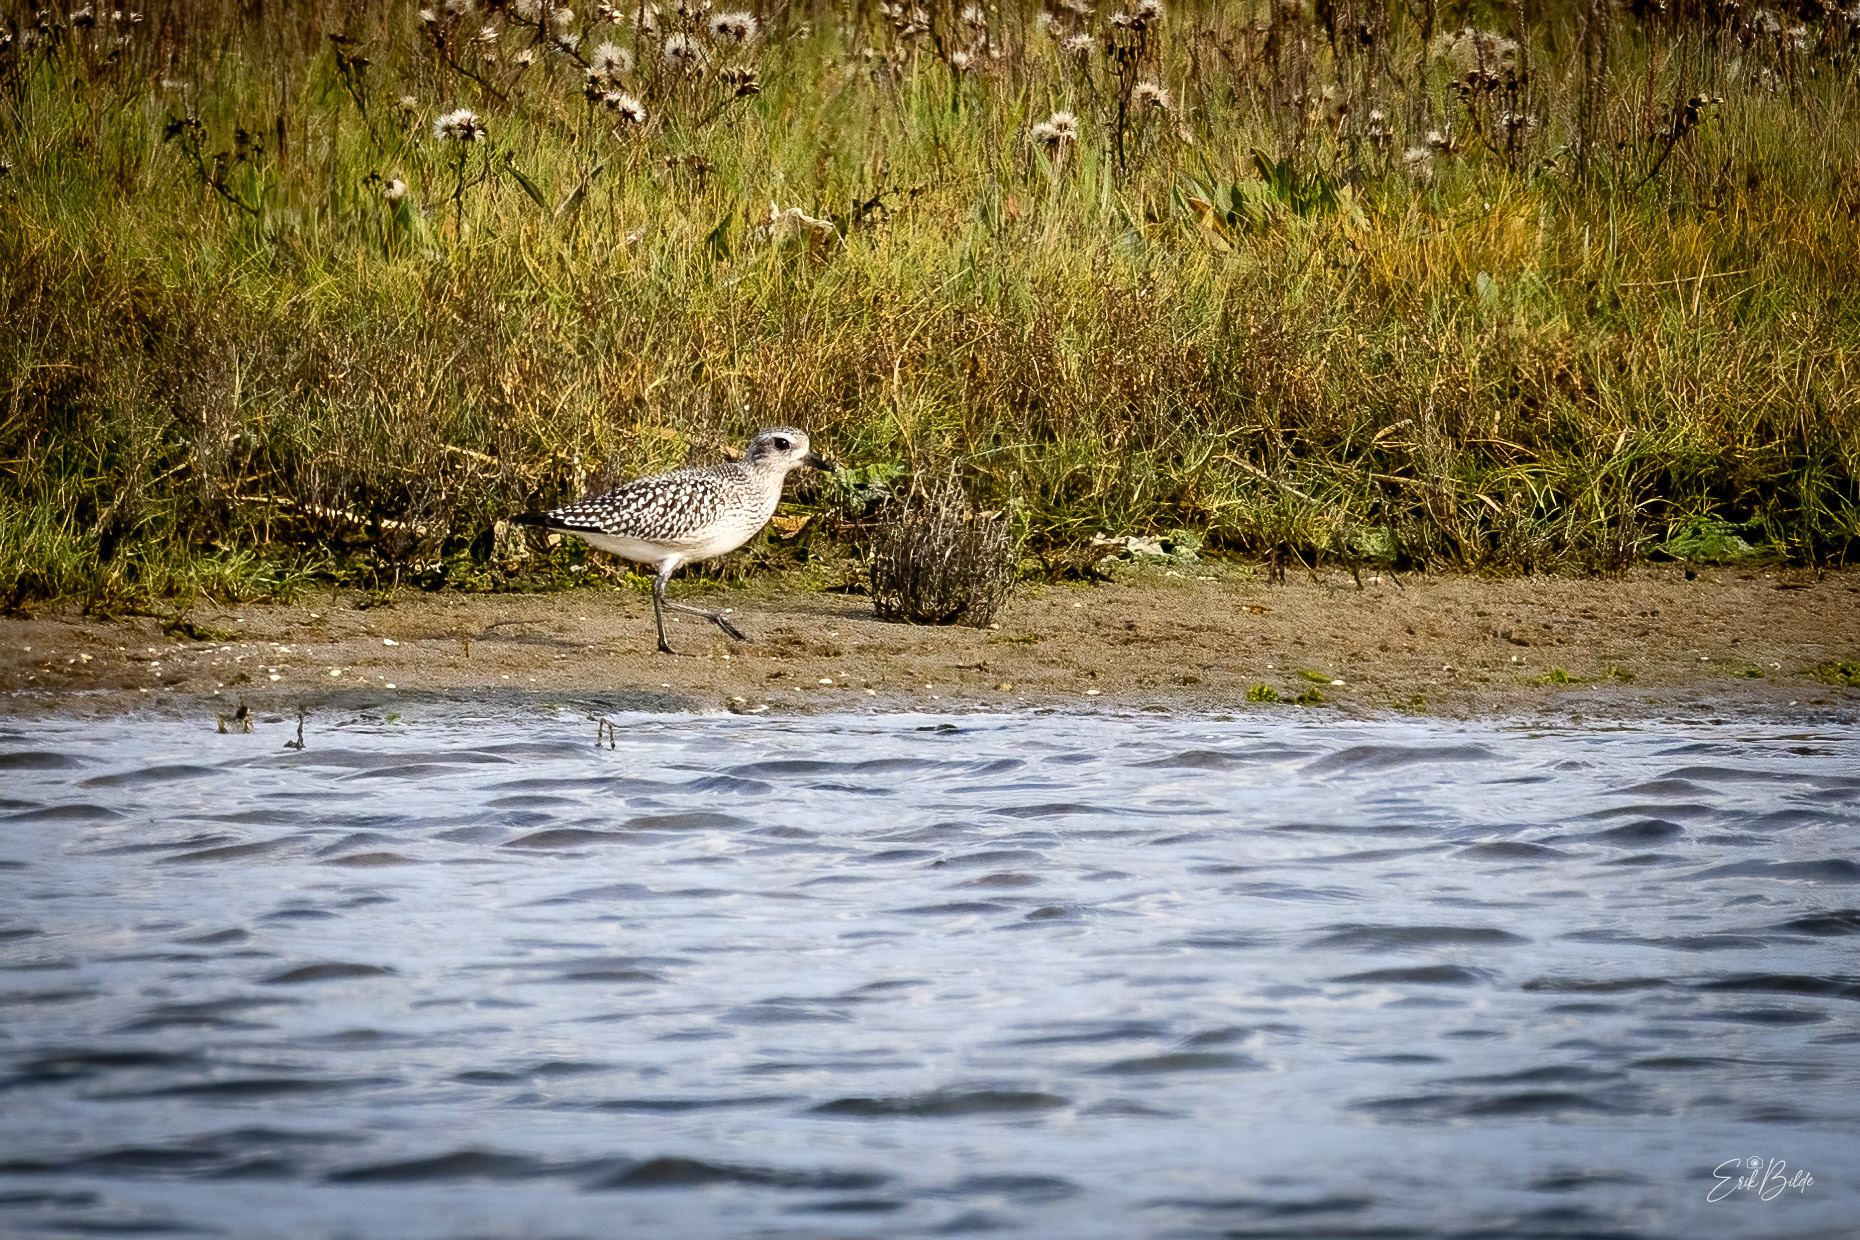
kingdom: Animalia
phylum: Chordata
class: Aves
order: Charadriiformes
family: Charadriidae
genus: Pluvialis
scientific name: Pluvialis squatarola
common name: Strandhjejle
